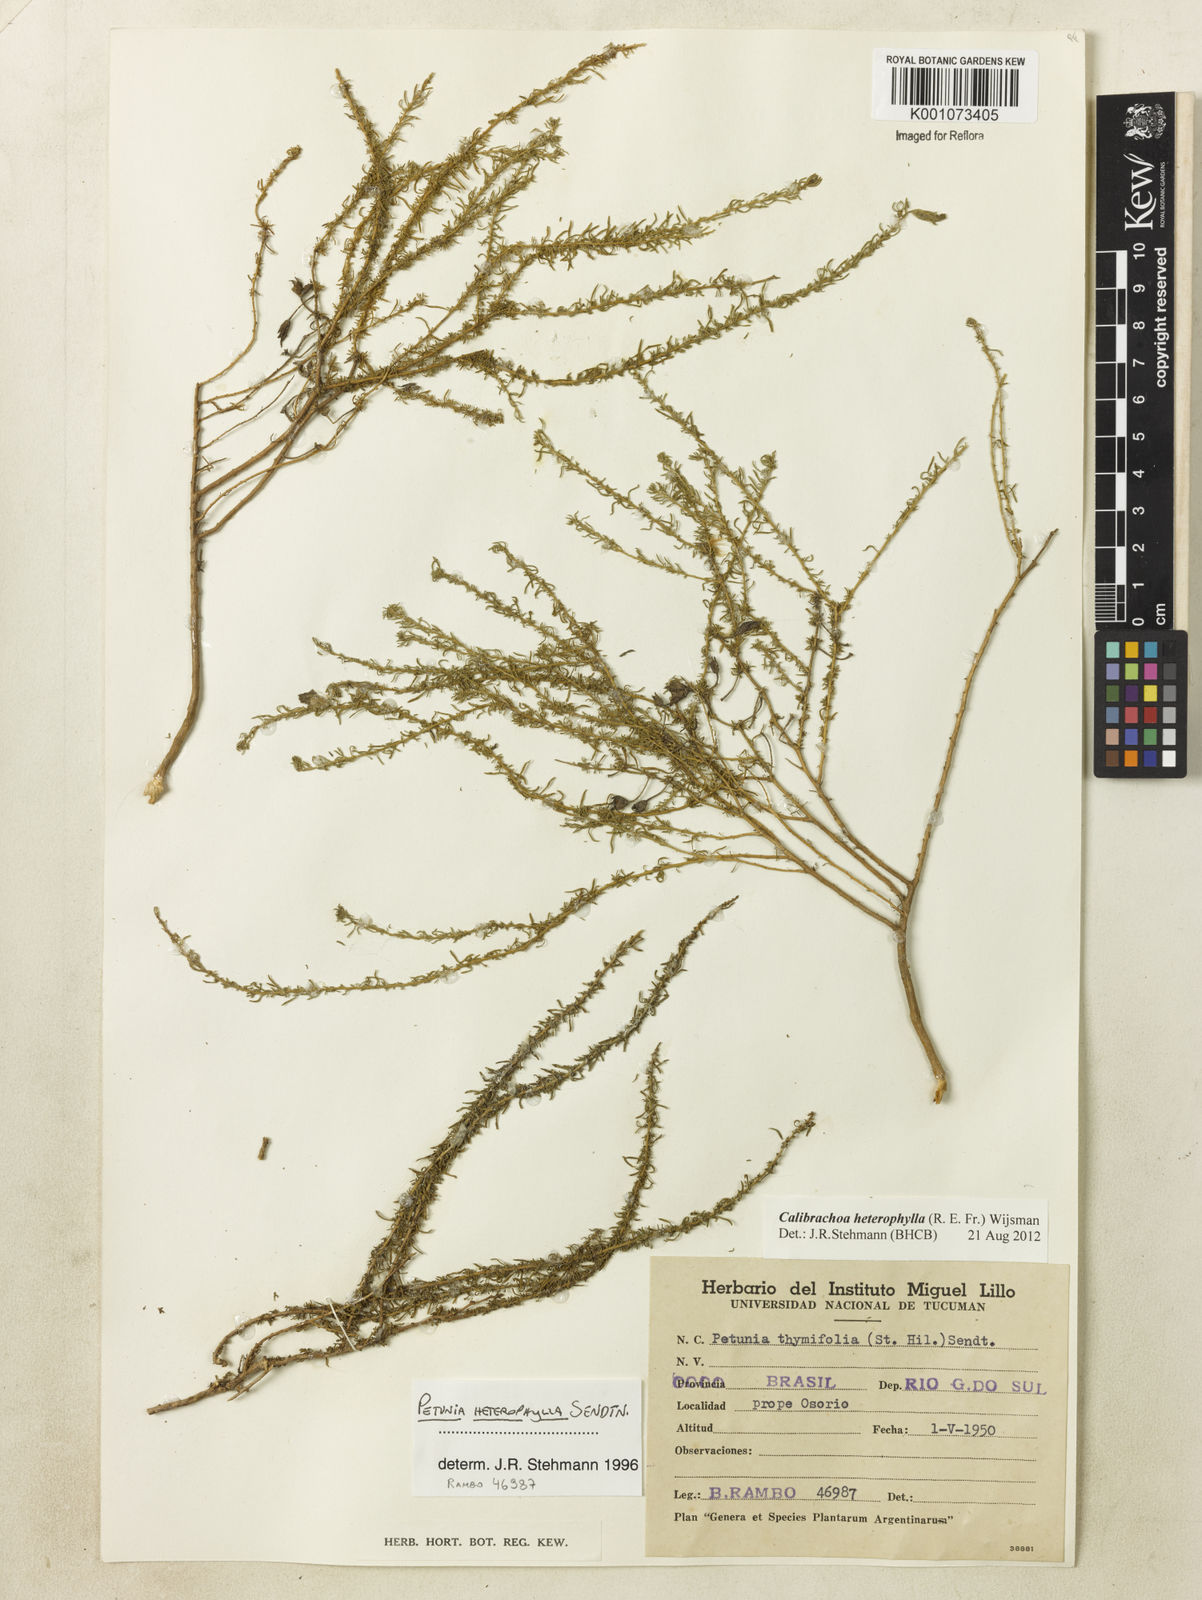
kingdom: Plantae
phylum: Tracheophyta
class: Magnoliopsida
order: Solanales
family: Solanaceae
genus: Calibrachoa
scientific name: Calibrachoa heterophylla
